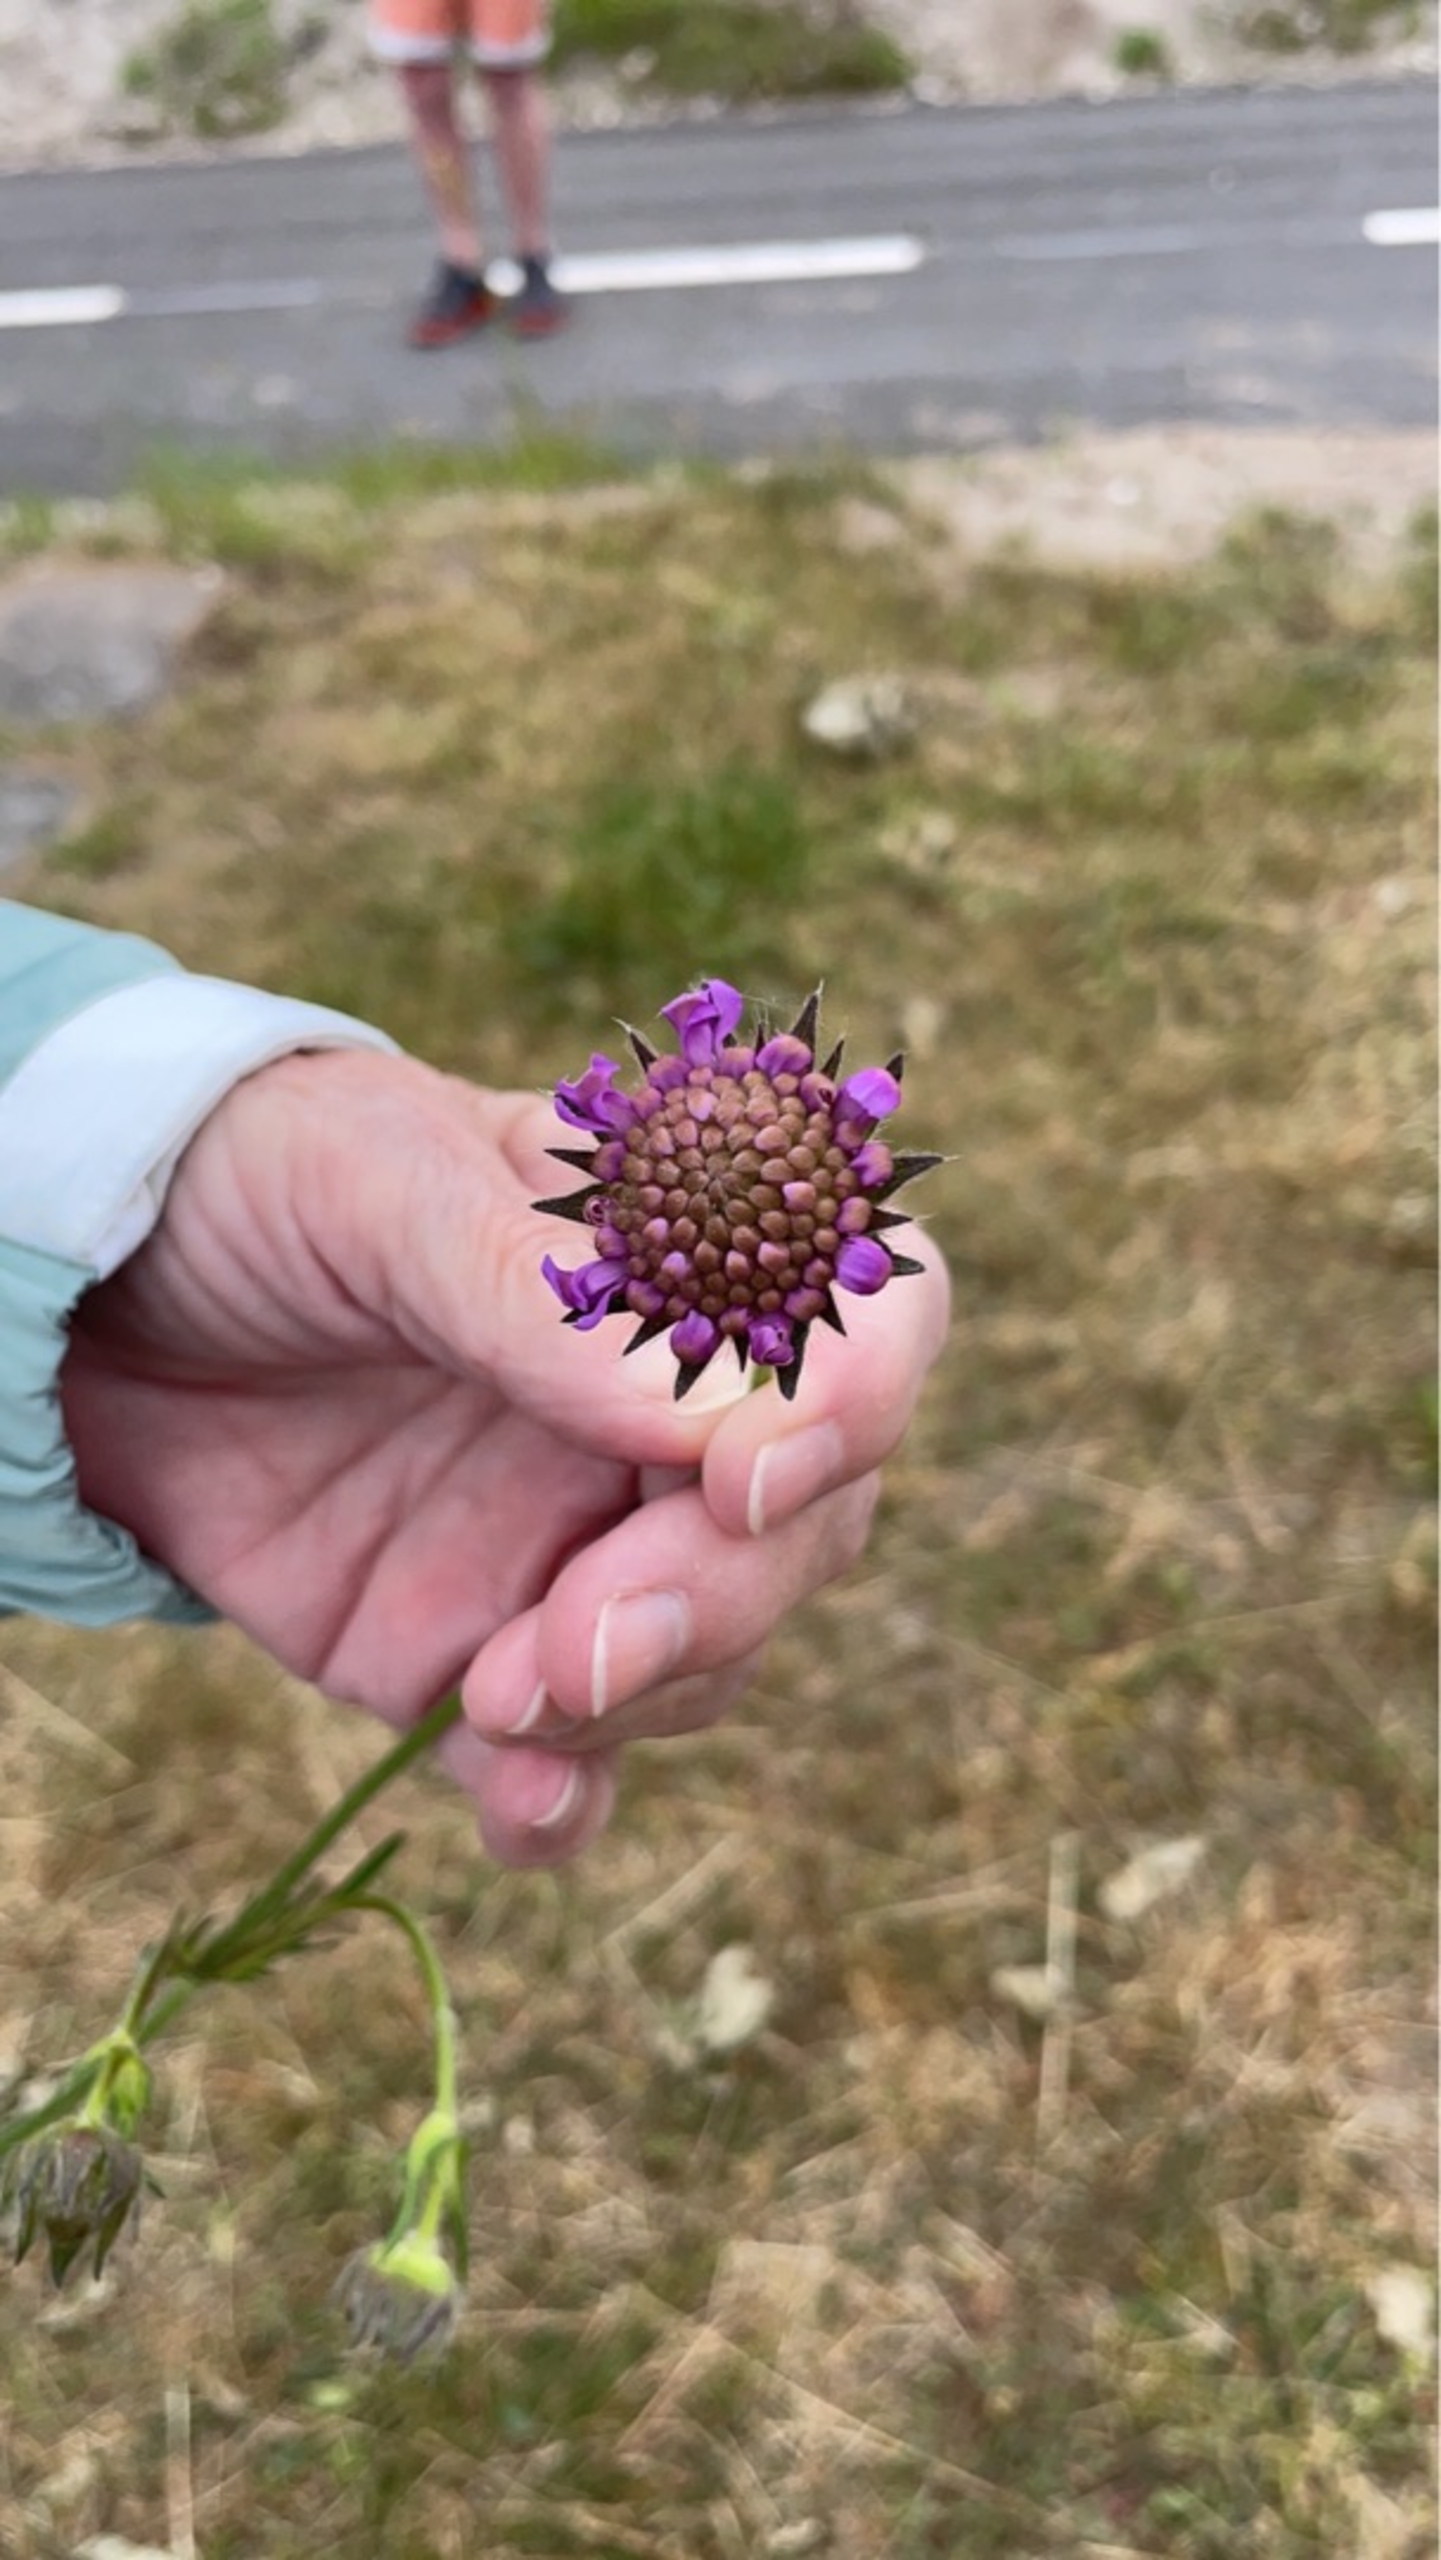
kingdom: Plantae
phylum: Tracheophyta
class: Magnoliopsida
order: Dipsacales
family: Caprifoliaceae
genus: Knautia
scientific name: Knautia arvensis
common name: Blåhat
